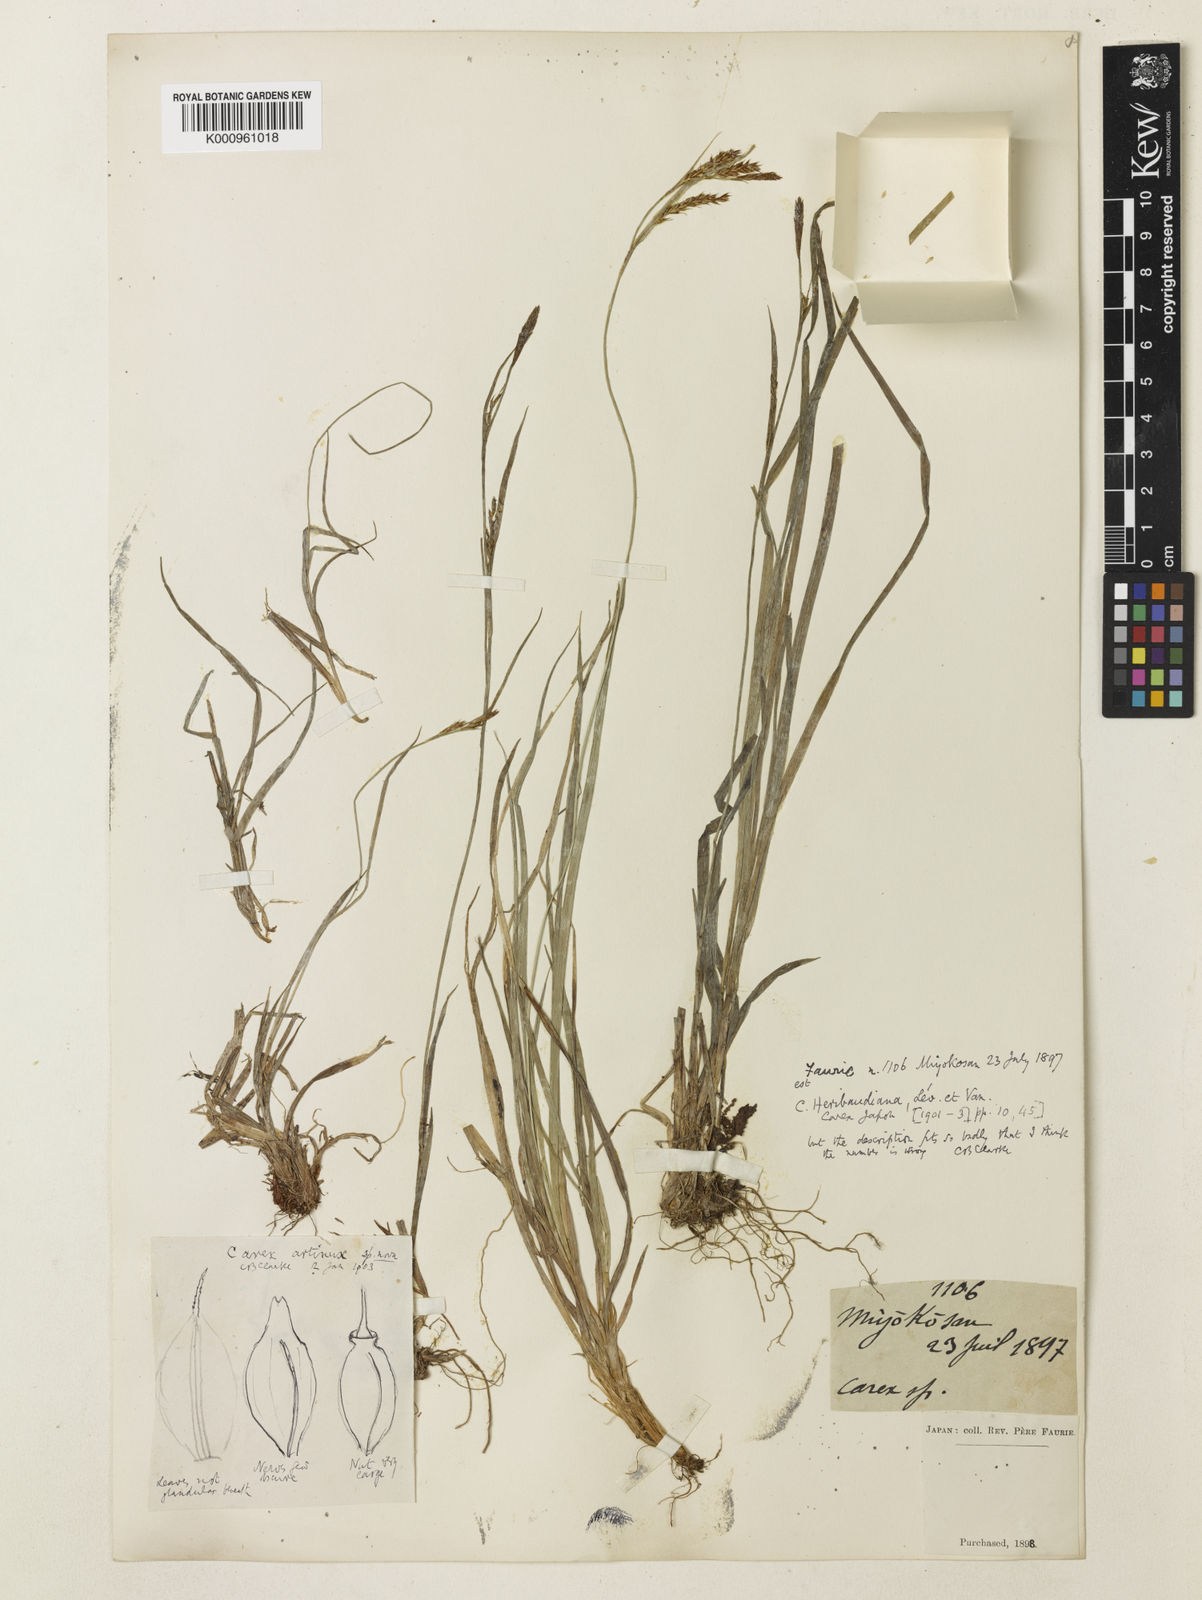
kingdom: Plantae
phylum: Tracheophyta
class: Liliopsida
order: Poales
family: Cyperaceae
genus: Carex
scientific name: Carex pisiformis
